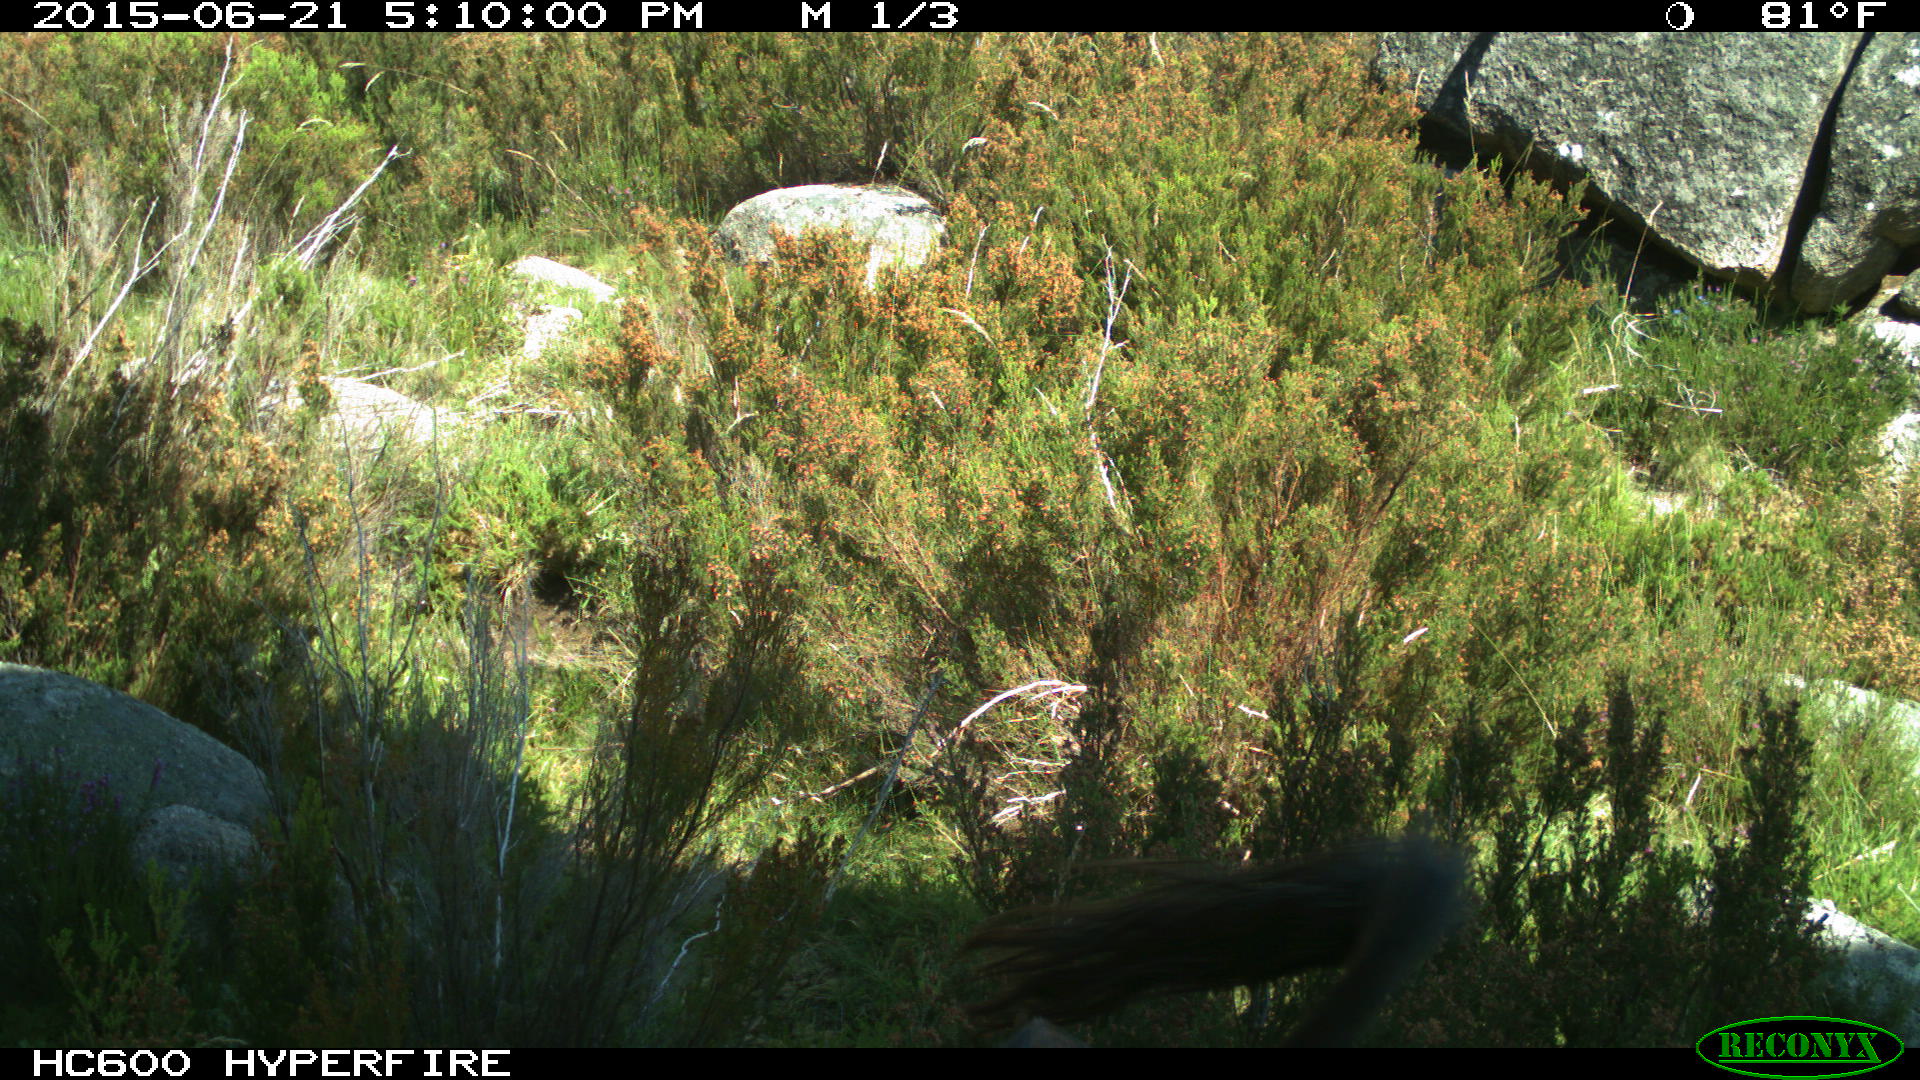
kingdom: Animalia
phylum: Chordata
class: Mammalia
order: Artiodactyla
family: Bovidae
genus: Bos
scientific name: Bos taurus
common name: Domesticated cattle
